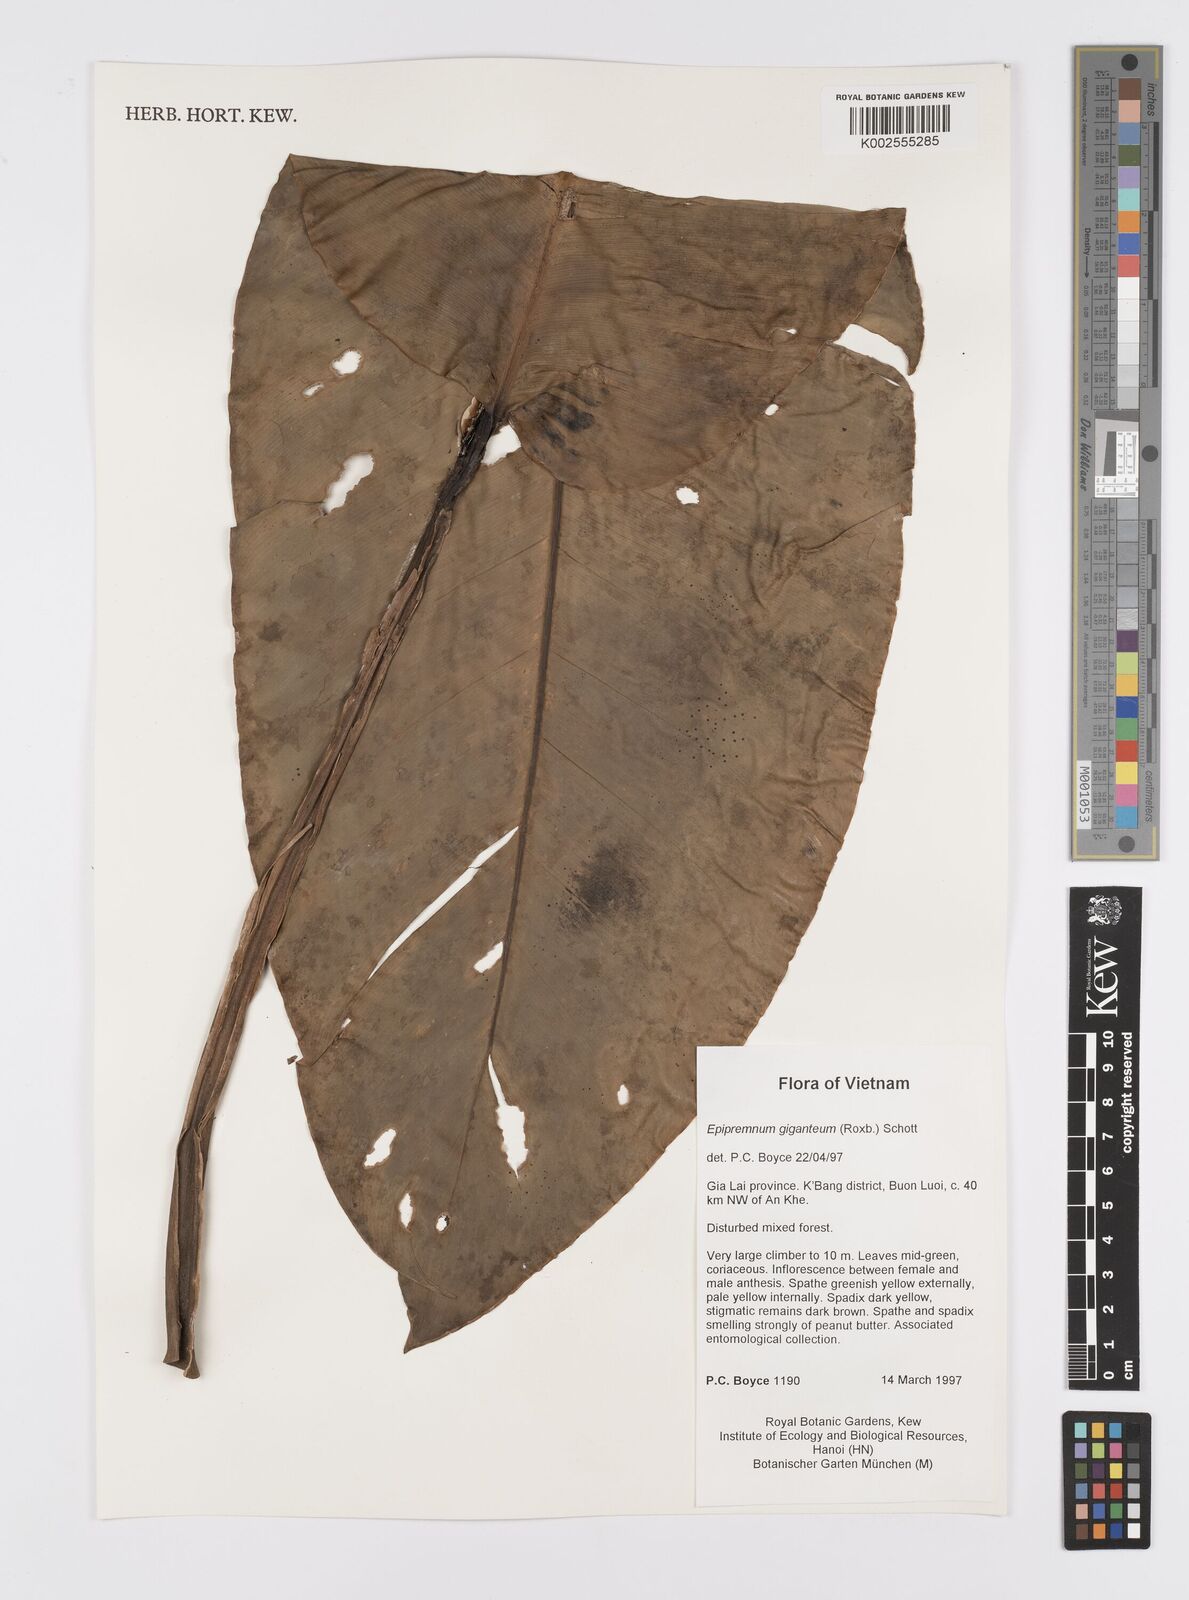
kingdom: Plantae
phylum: Tracheophyta
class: Liliopsida
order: Alismatales
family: Araceae
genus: Epipremnum
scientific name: Epipremnum giganteum
